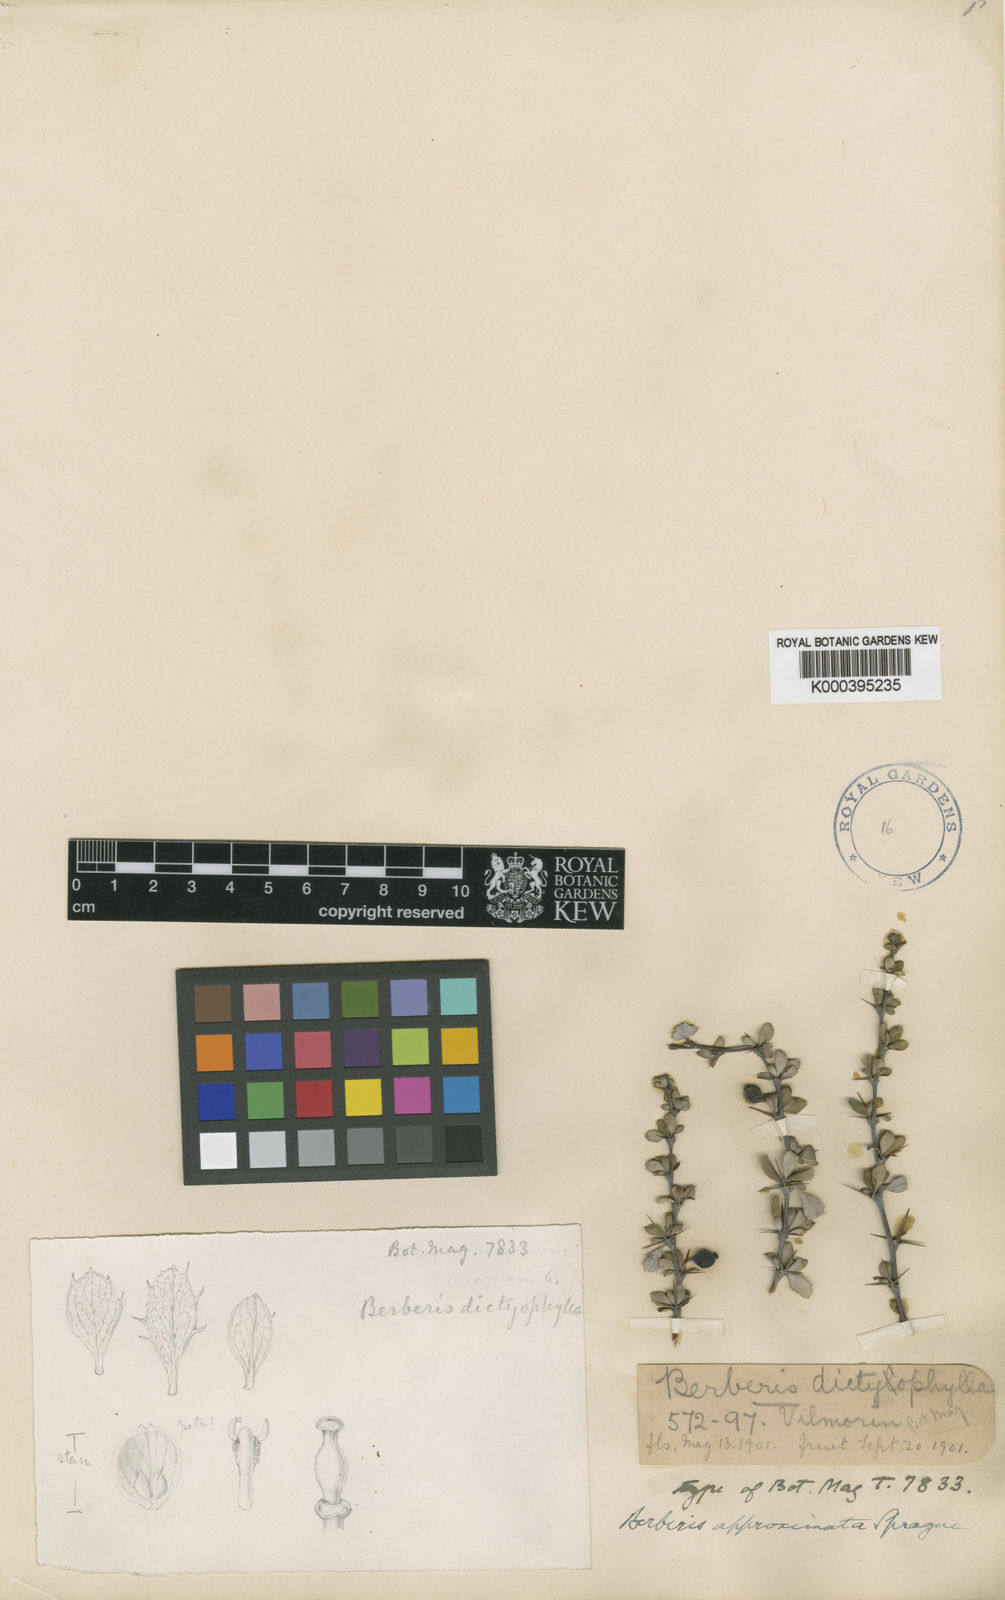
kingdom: Plantae
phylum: Tracheophyta
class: Magnoliopsida
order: Ranunculales
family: Berberidaceae
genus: Berberis
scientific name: Berberis dictyophylla
